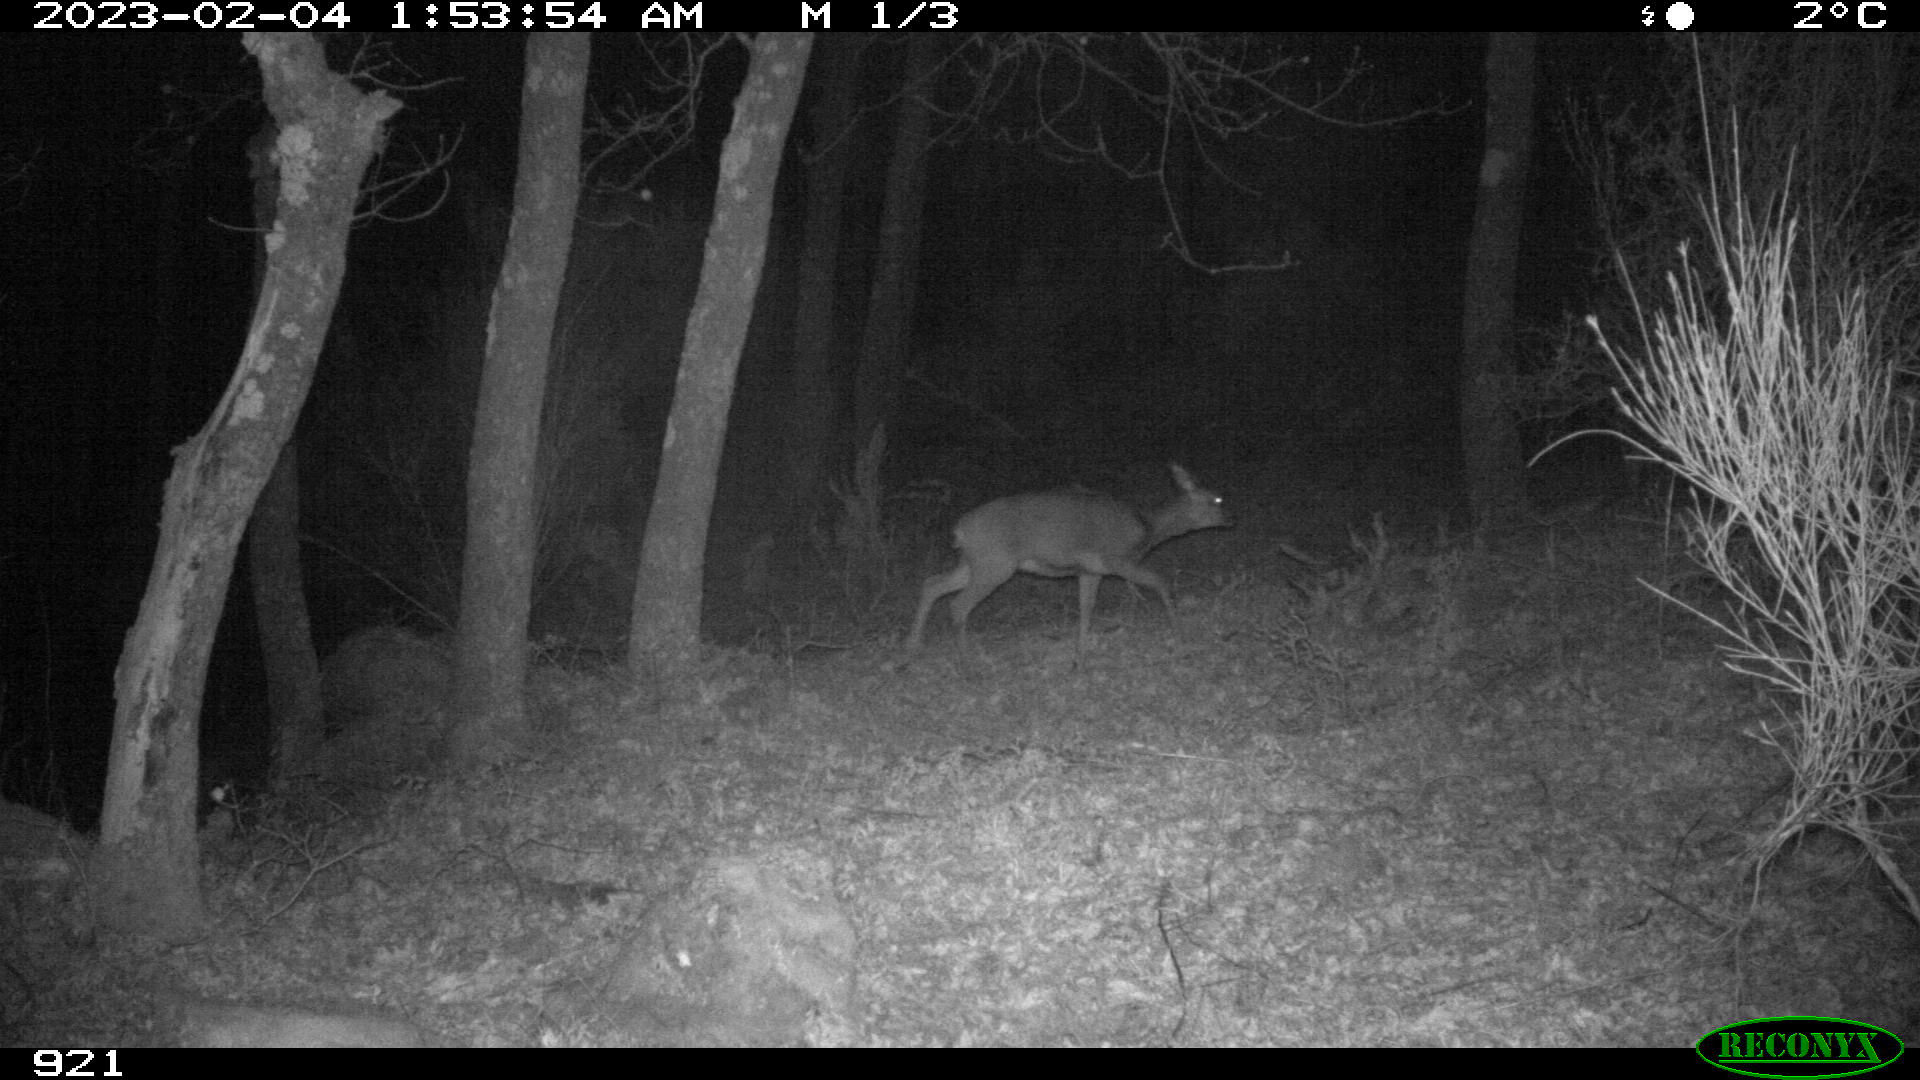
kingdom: Animalia
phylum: Chordata
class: Mammalia
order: Artiodactyla
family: Cervidae
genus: Capreolus
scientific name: Capreolus capreolus
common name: Western roe deer
